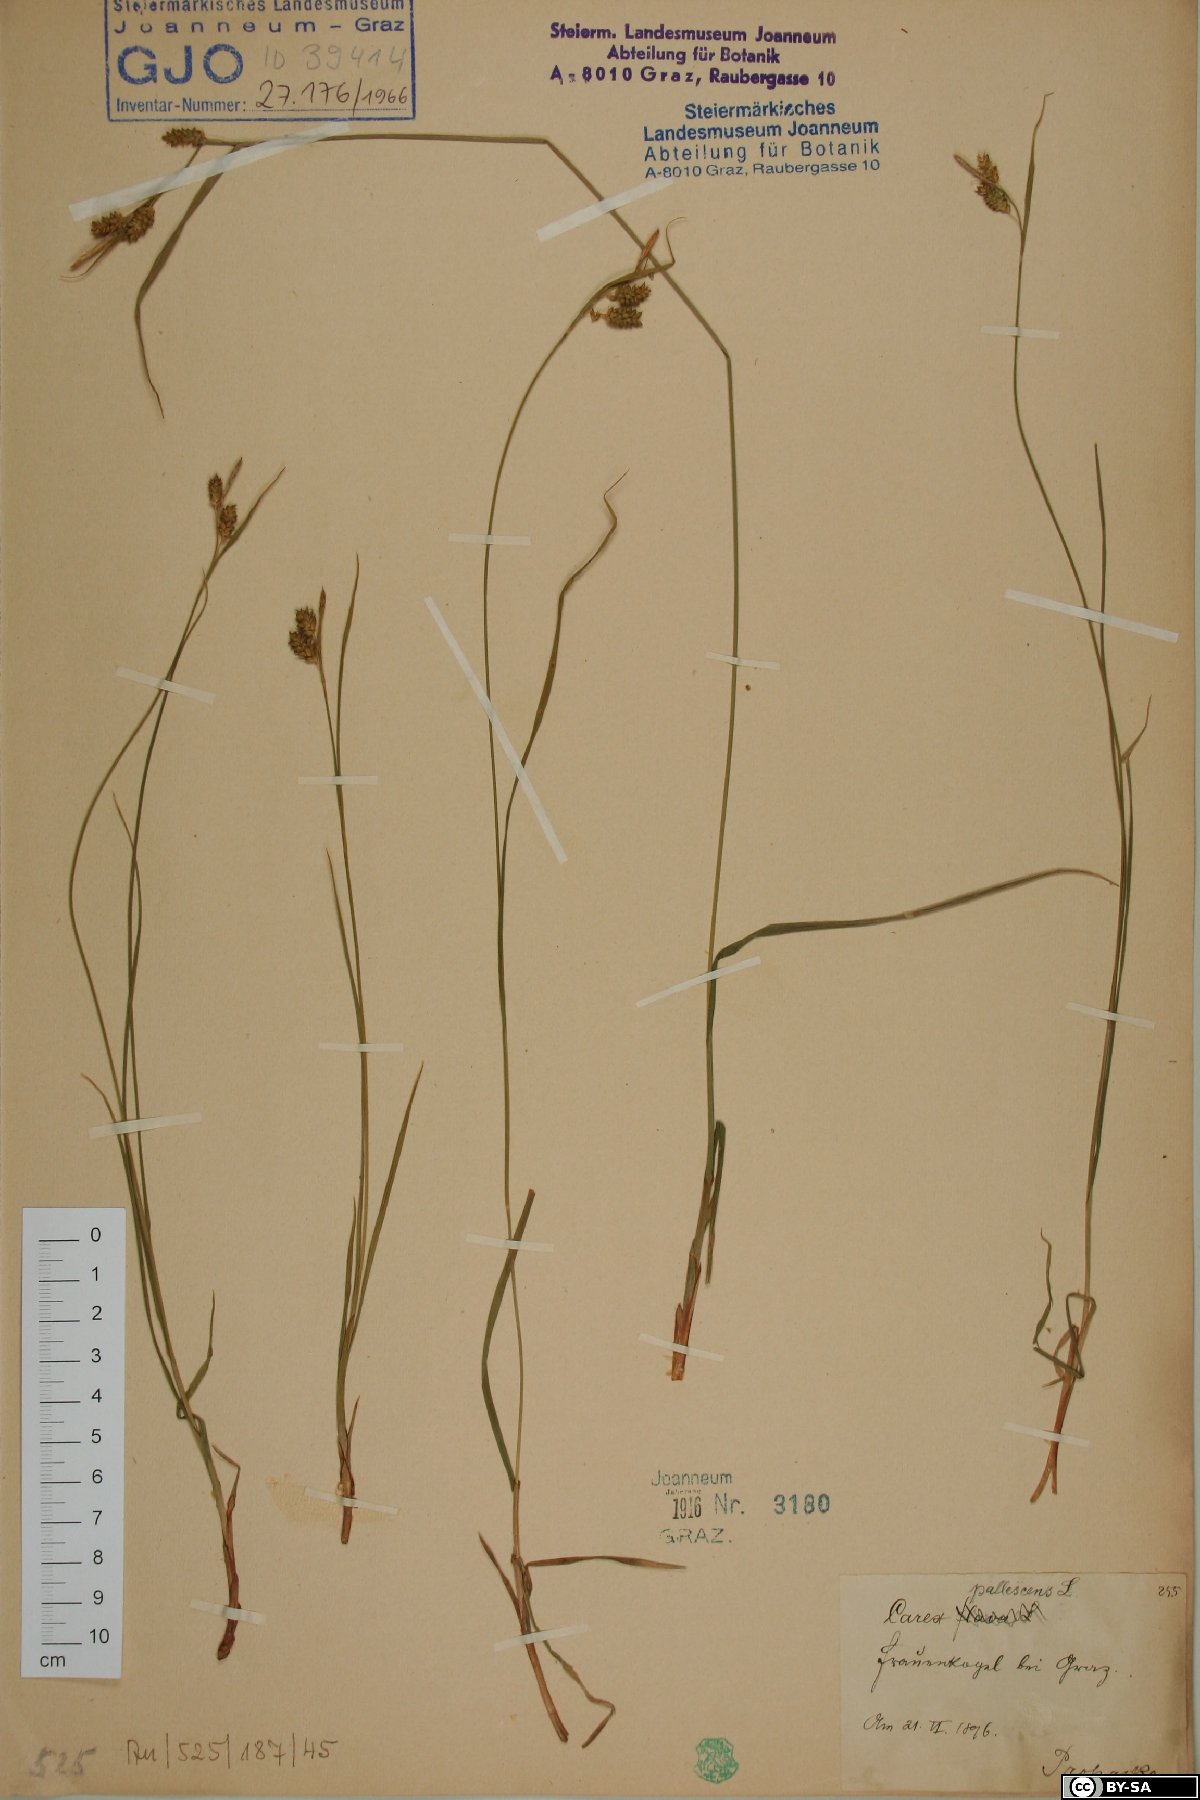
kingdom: Plantae
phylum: Tracheophyta
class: Liliopsida
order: Poales
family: Cyperaceae
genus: Carex
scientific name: Carex pallescens
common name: Pale sedge
